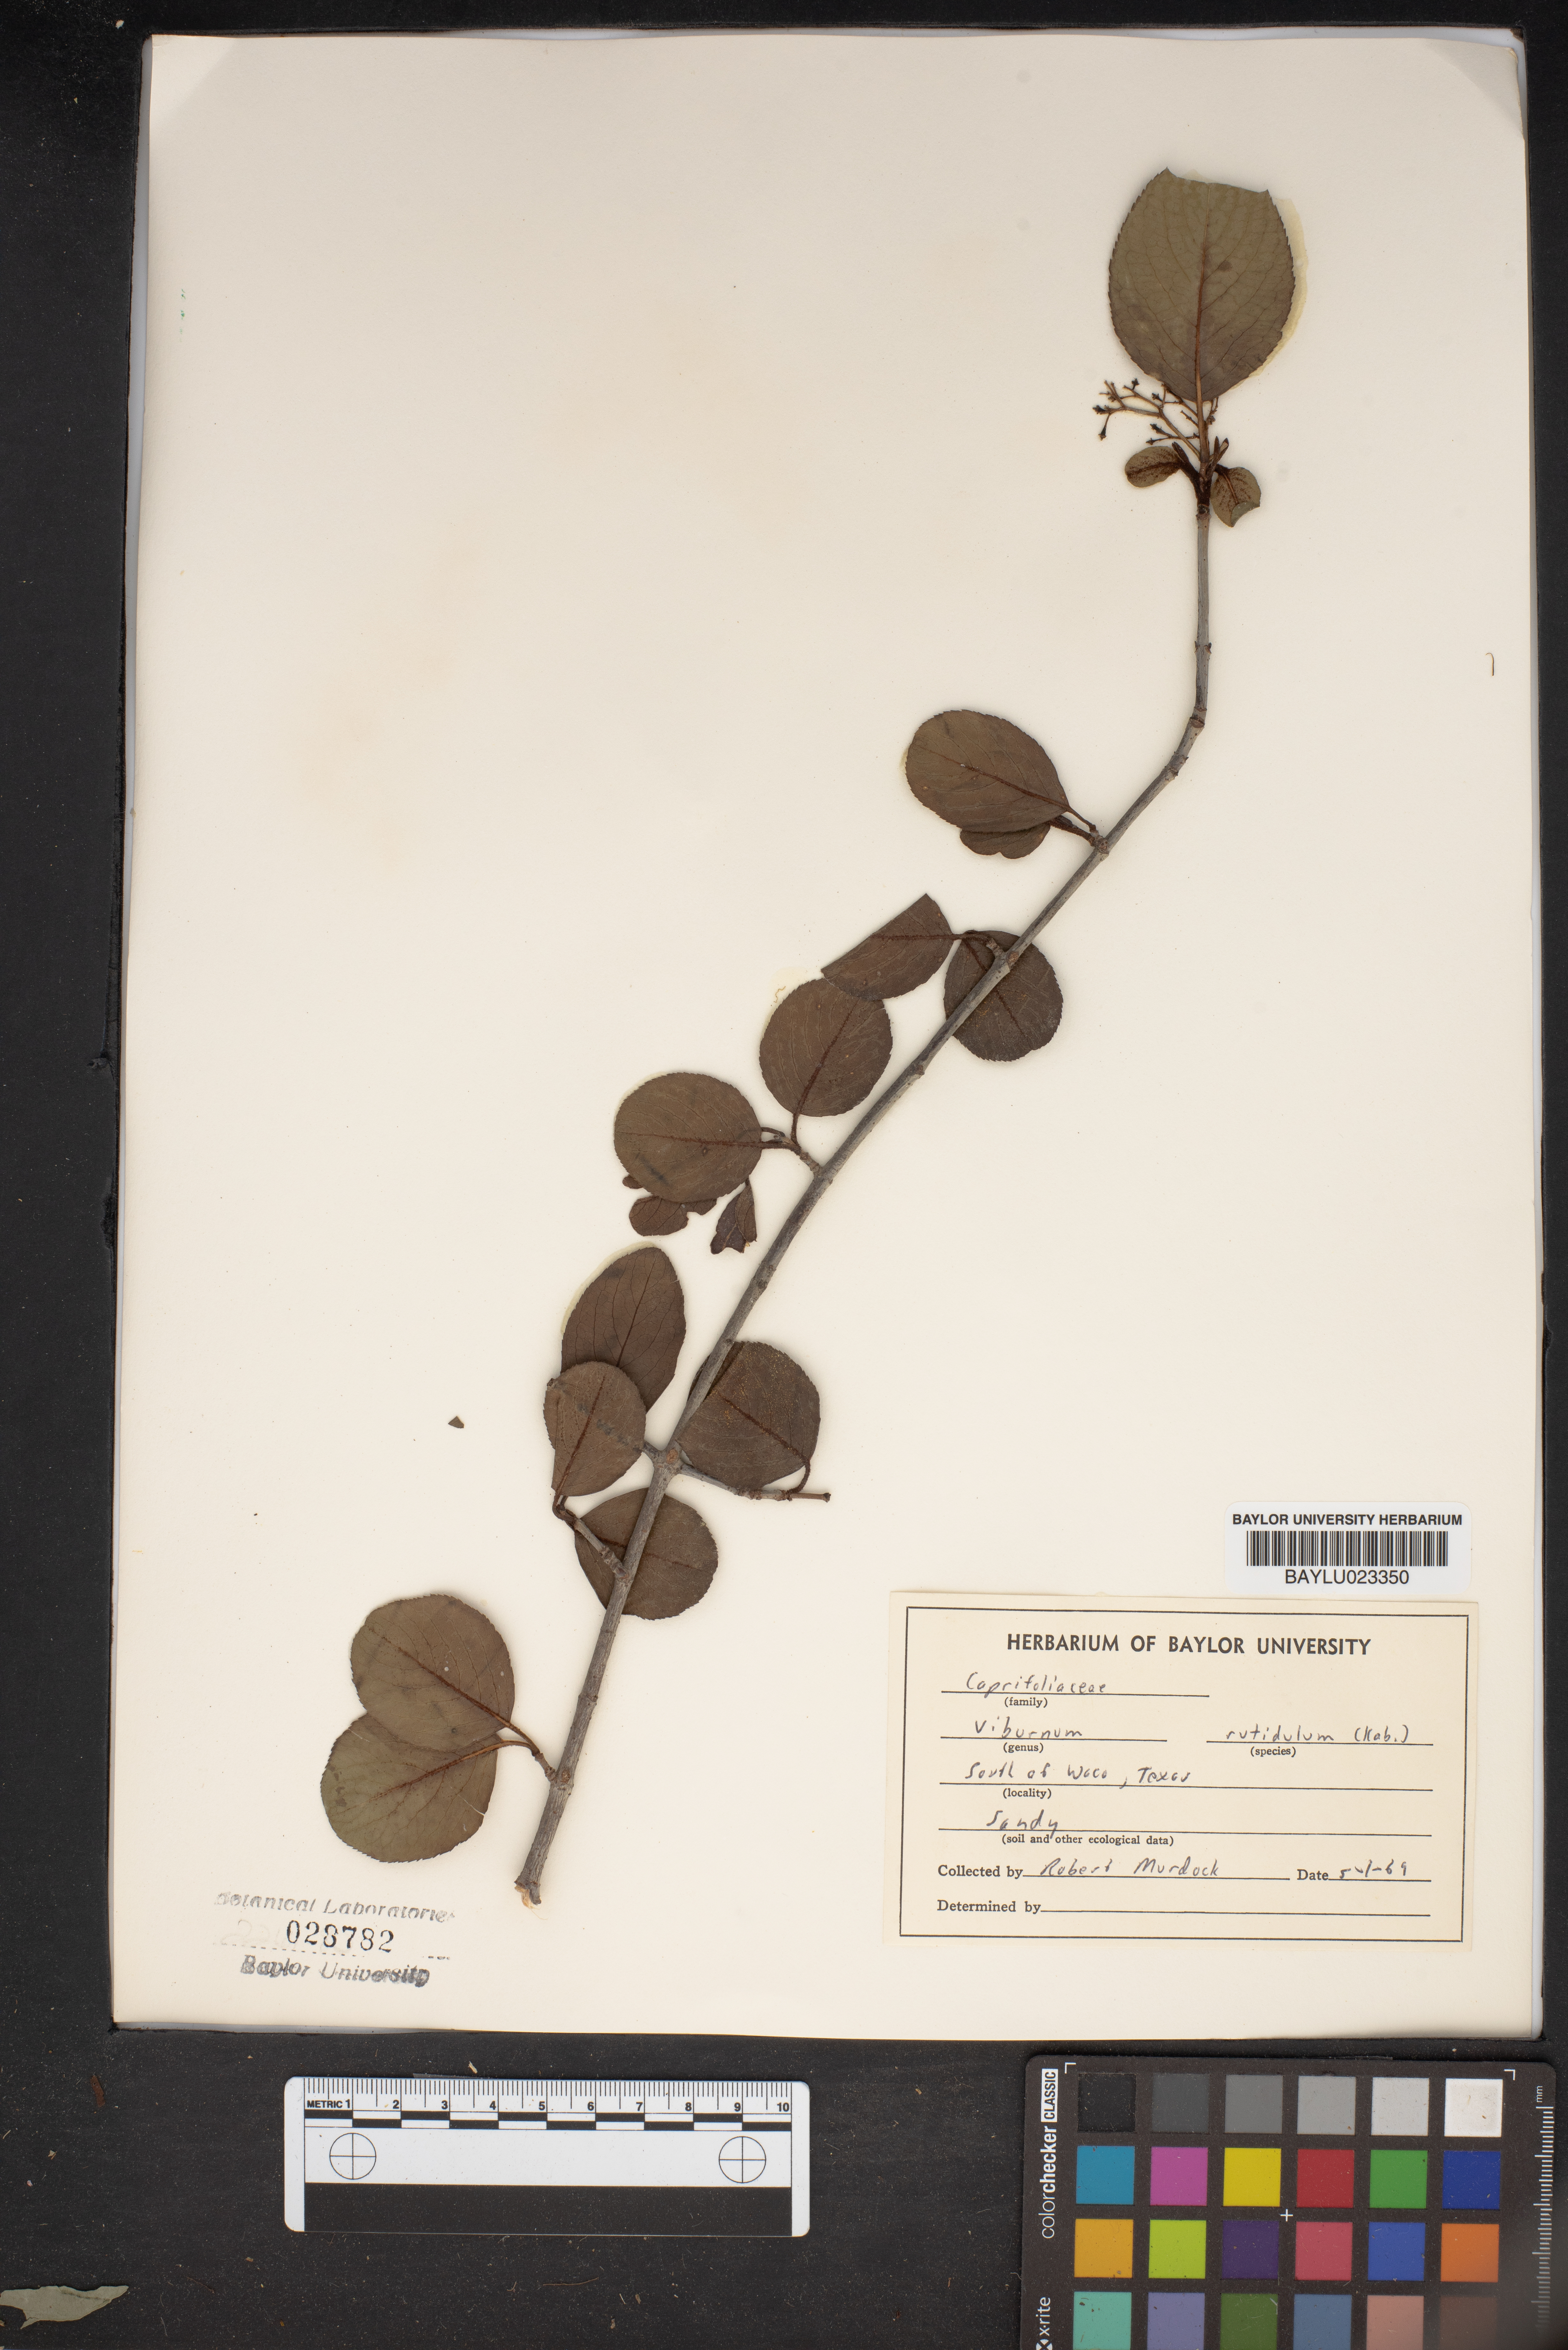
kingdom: Plantae
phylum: Tracheophyta
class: Magnoliopsida
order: Dipsacales
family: Viburnaceae
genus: Viburnum
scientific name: Viburnum rufidulum
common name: Blue haw
